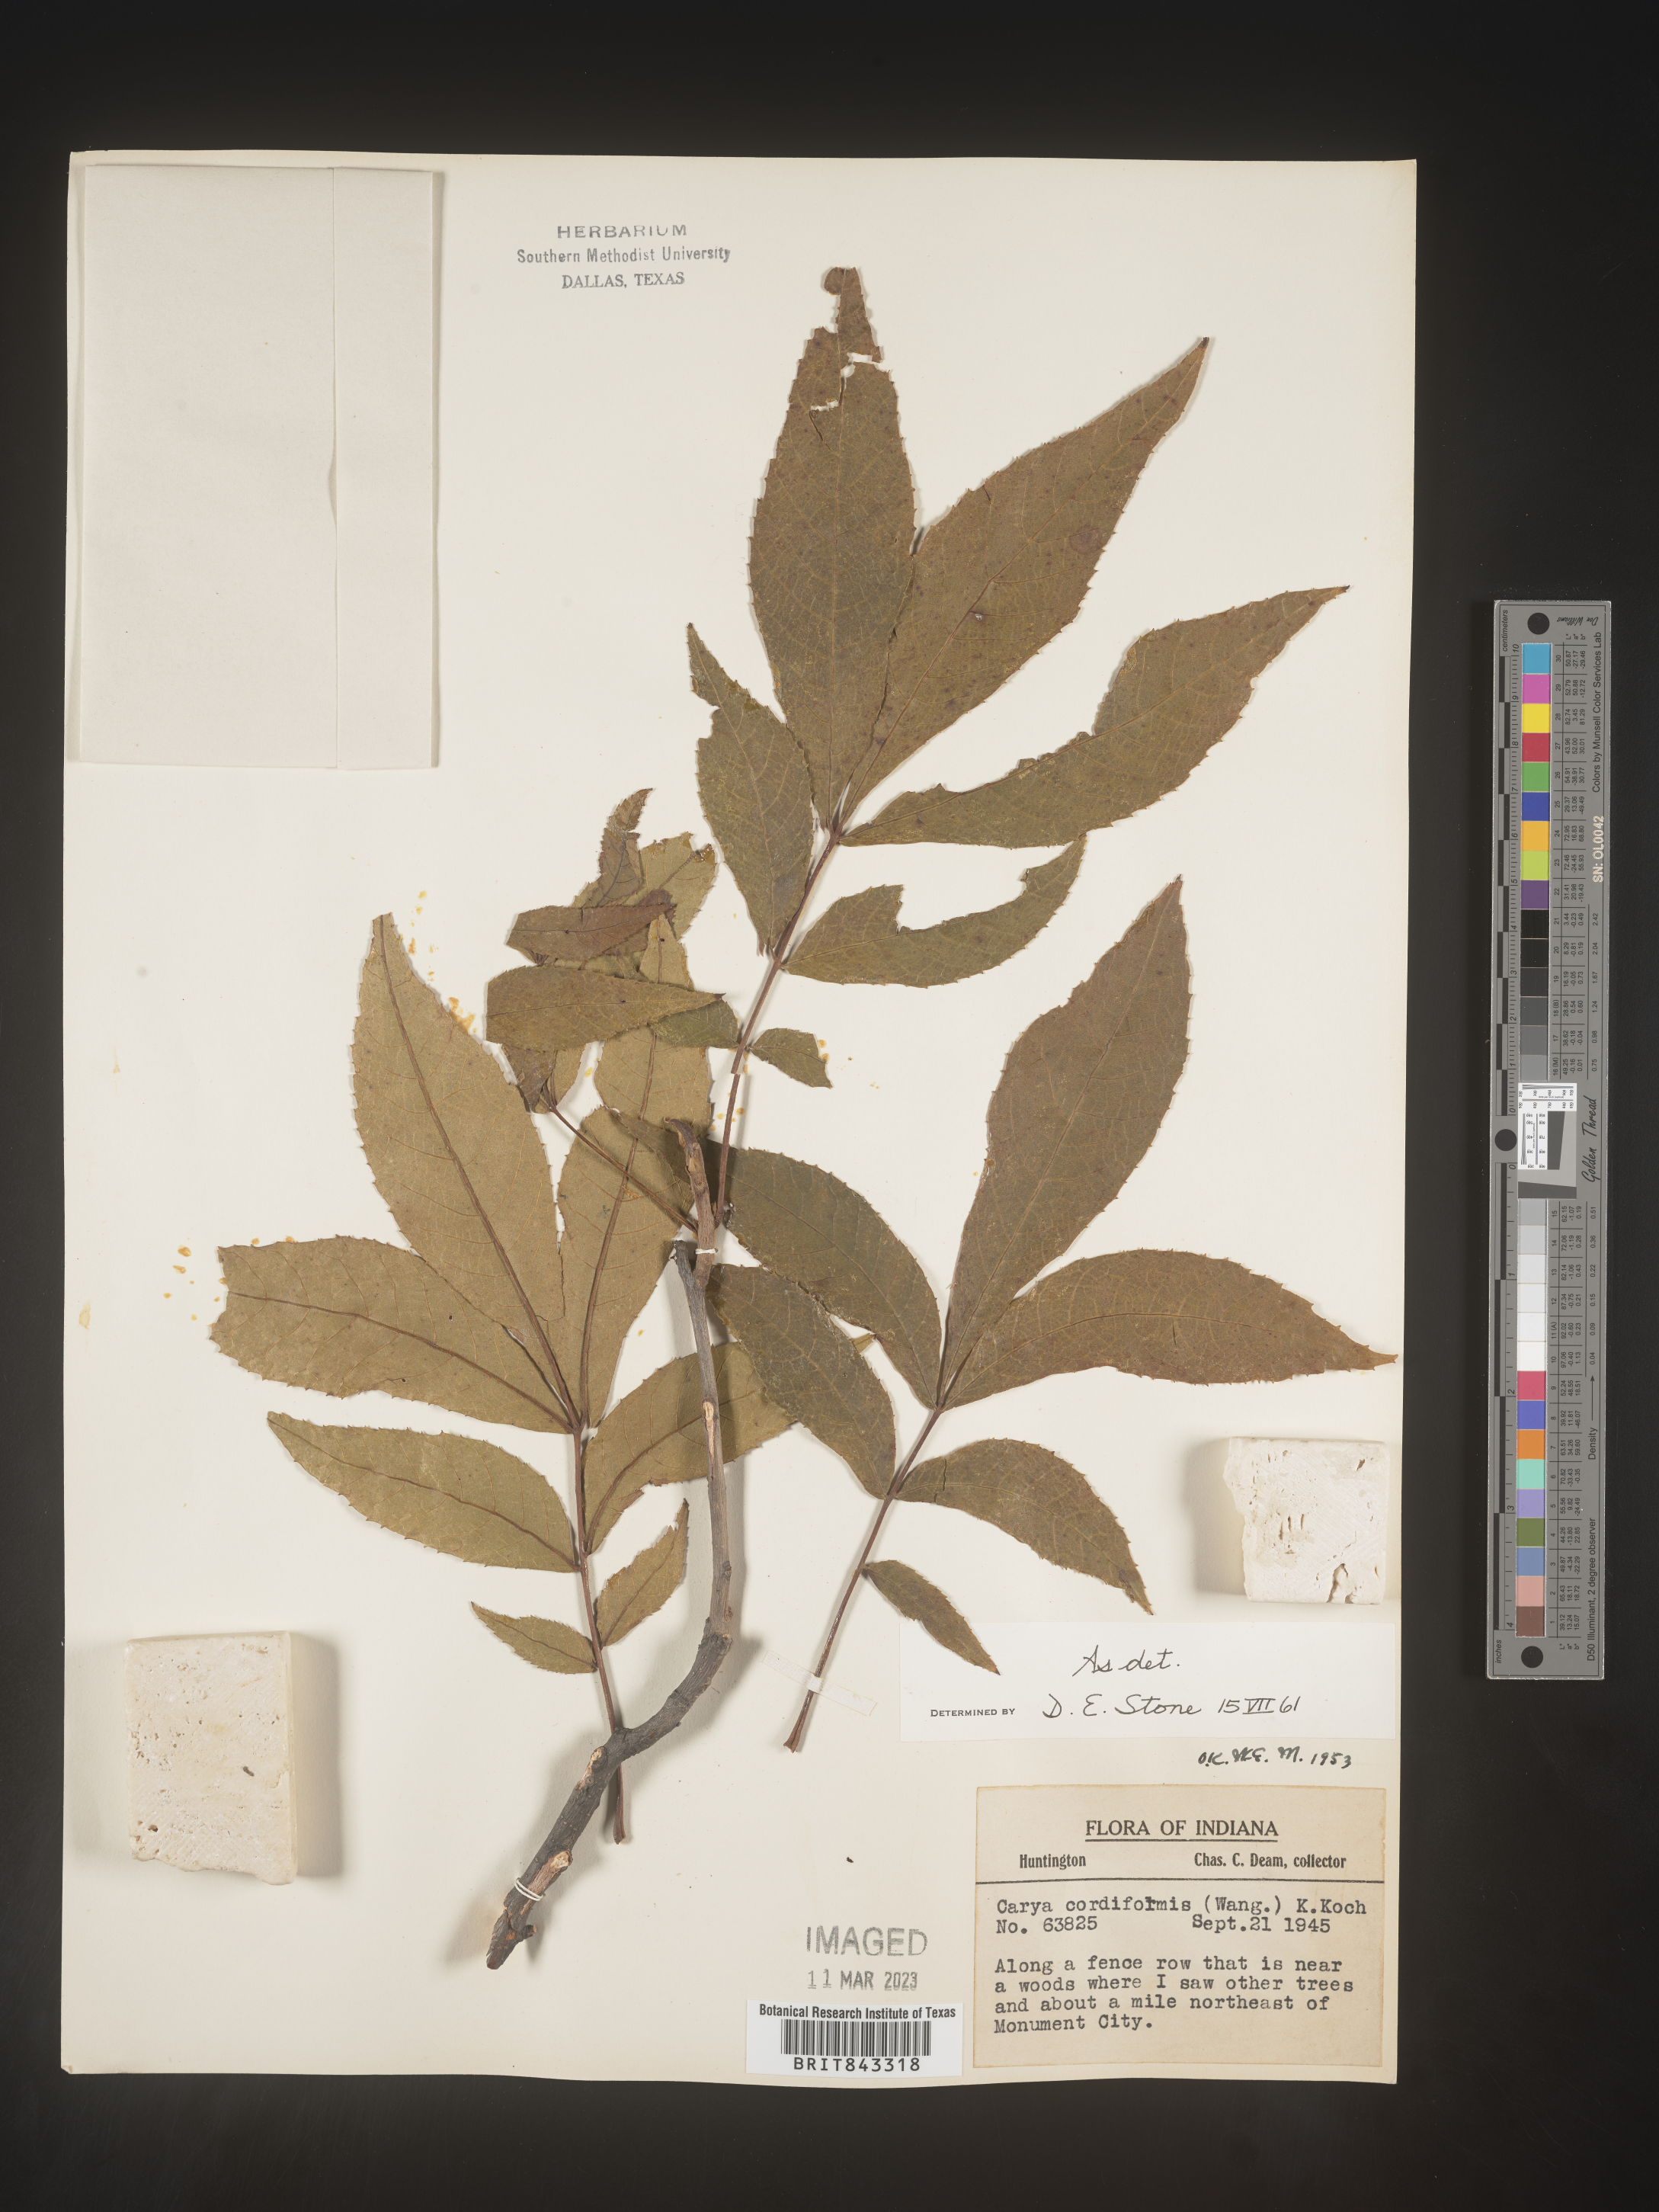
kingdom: Plantae
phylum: Tracheophyta
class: Magnoliopsida
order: Fagales
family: Juglandaceae
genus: Carya
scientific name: Carya cordiformis
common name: Bitternut hickory
